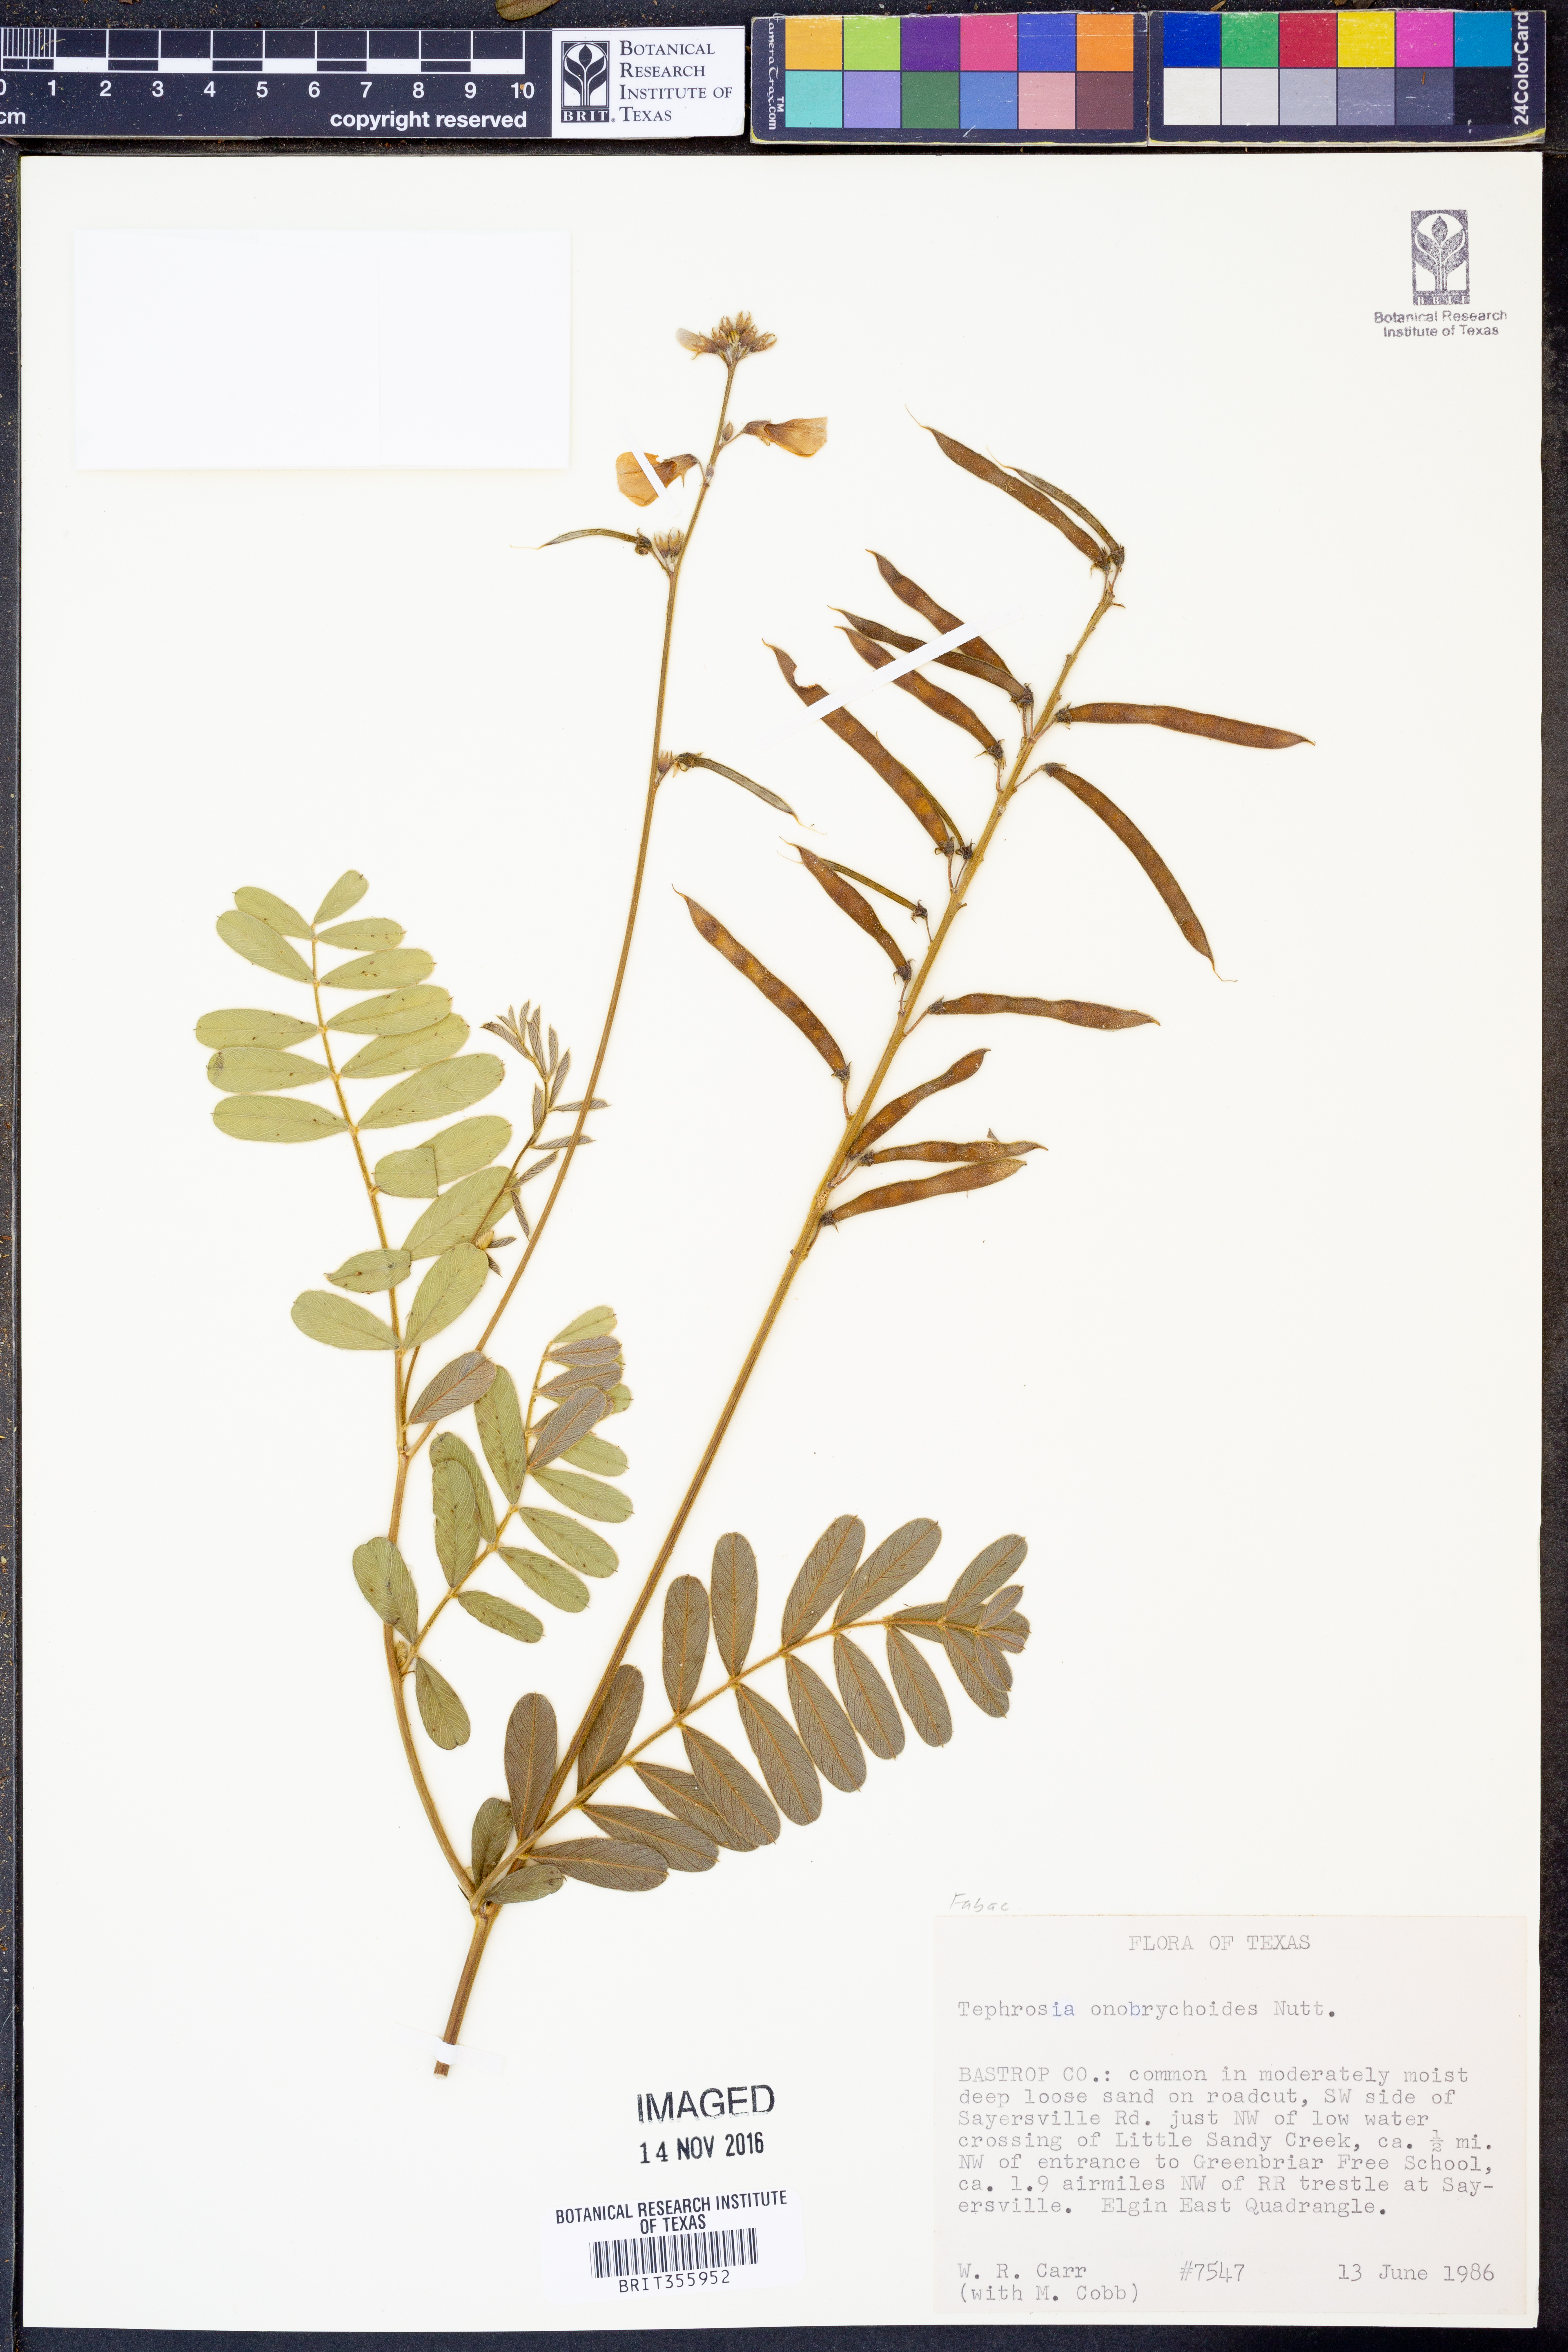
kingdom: Plantae
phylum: Tracheophyta
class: Magnoliopsida
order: Fabales
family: Fabaceae
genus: Tephrosia
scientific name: Tephrosia onobrychoides
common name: Multi-bloom hoary-pea
